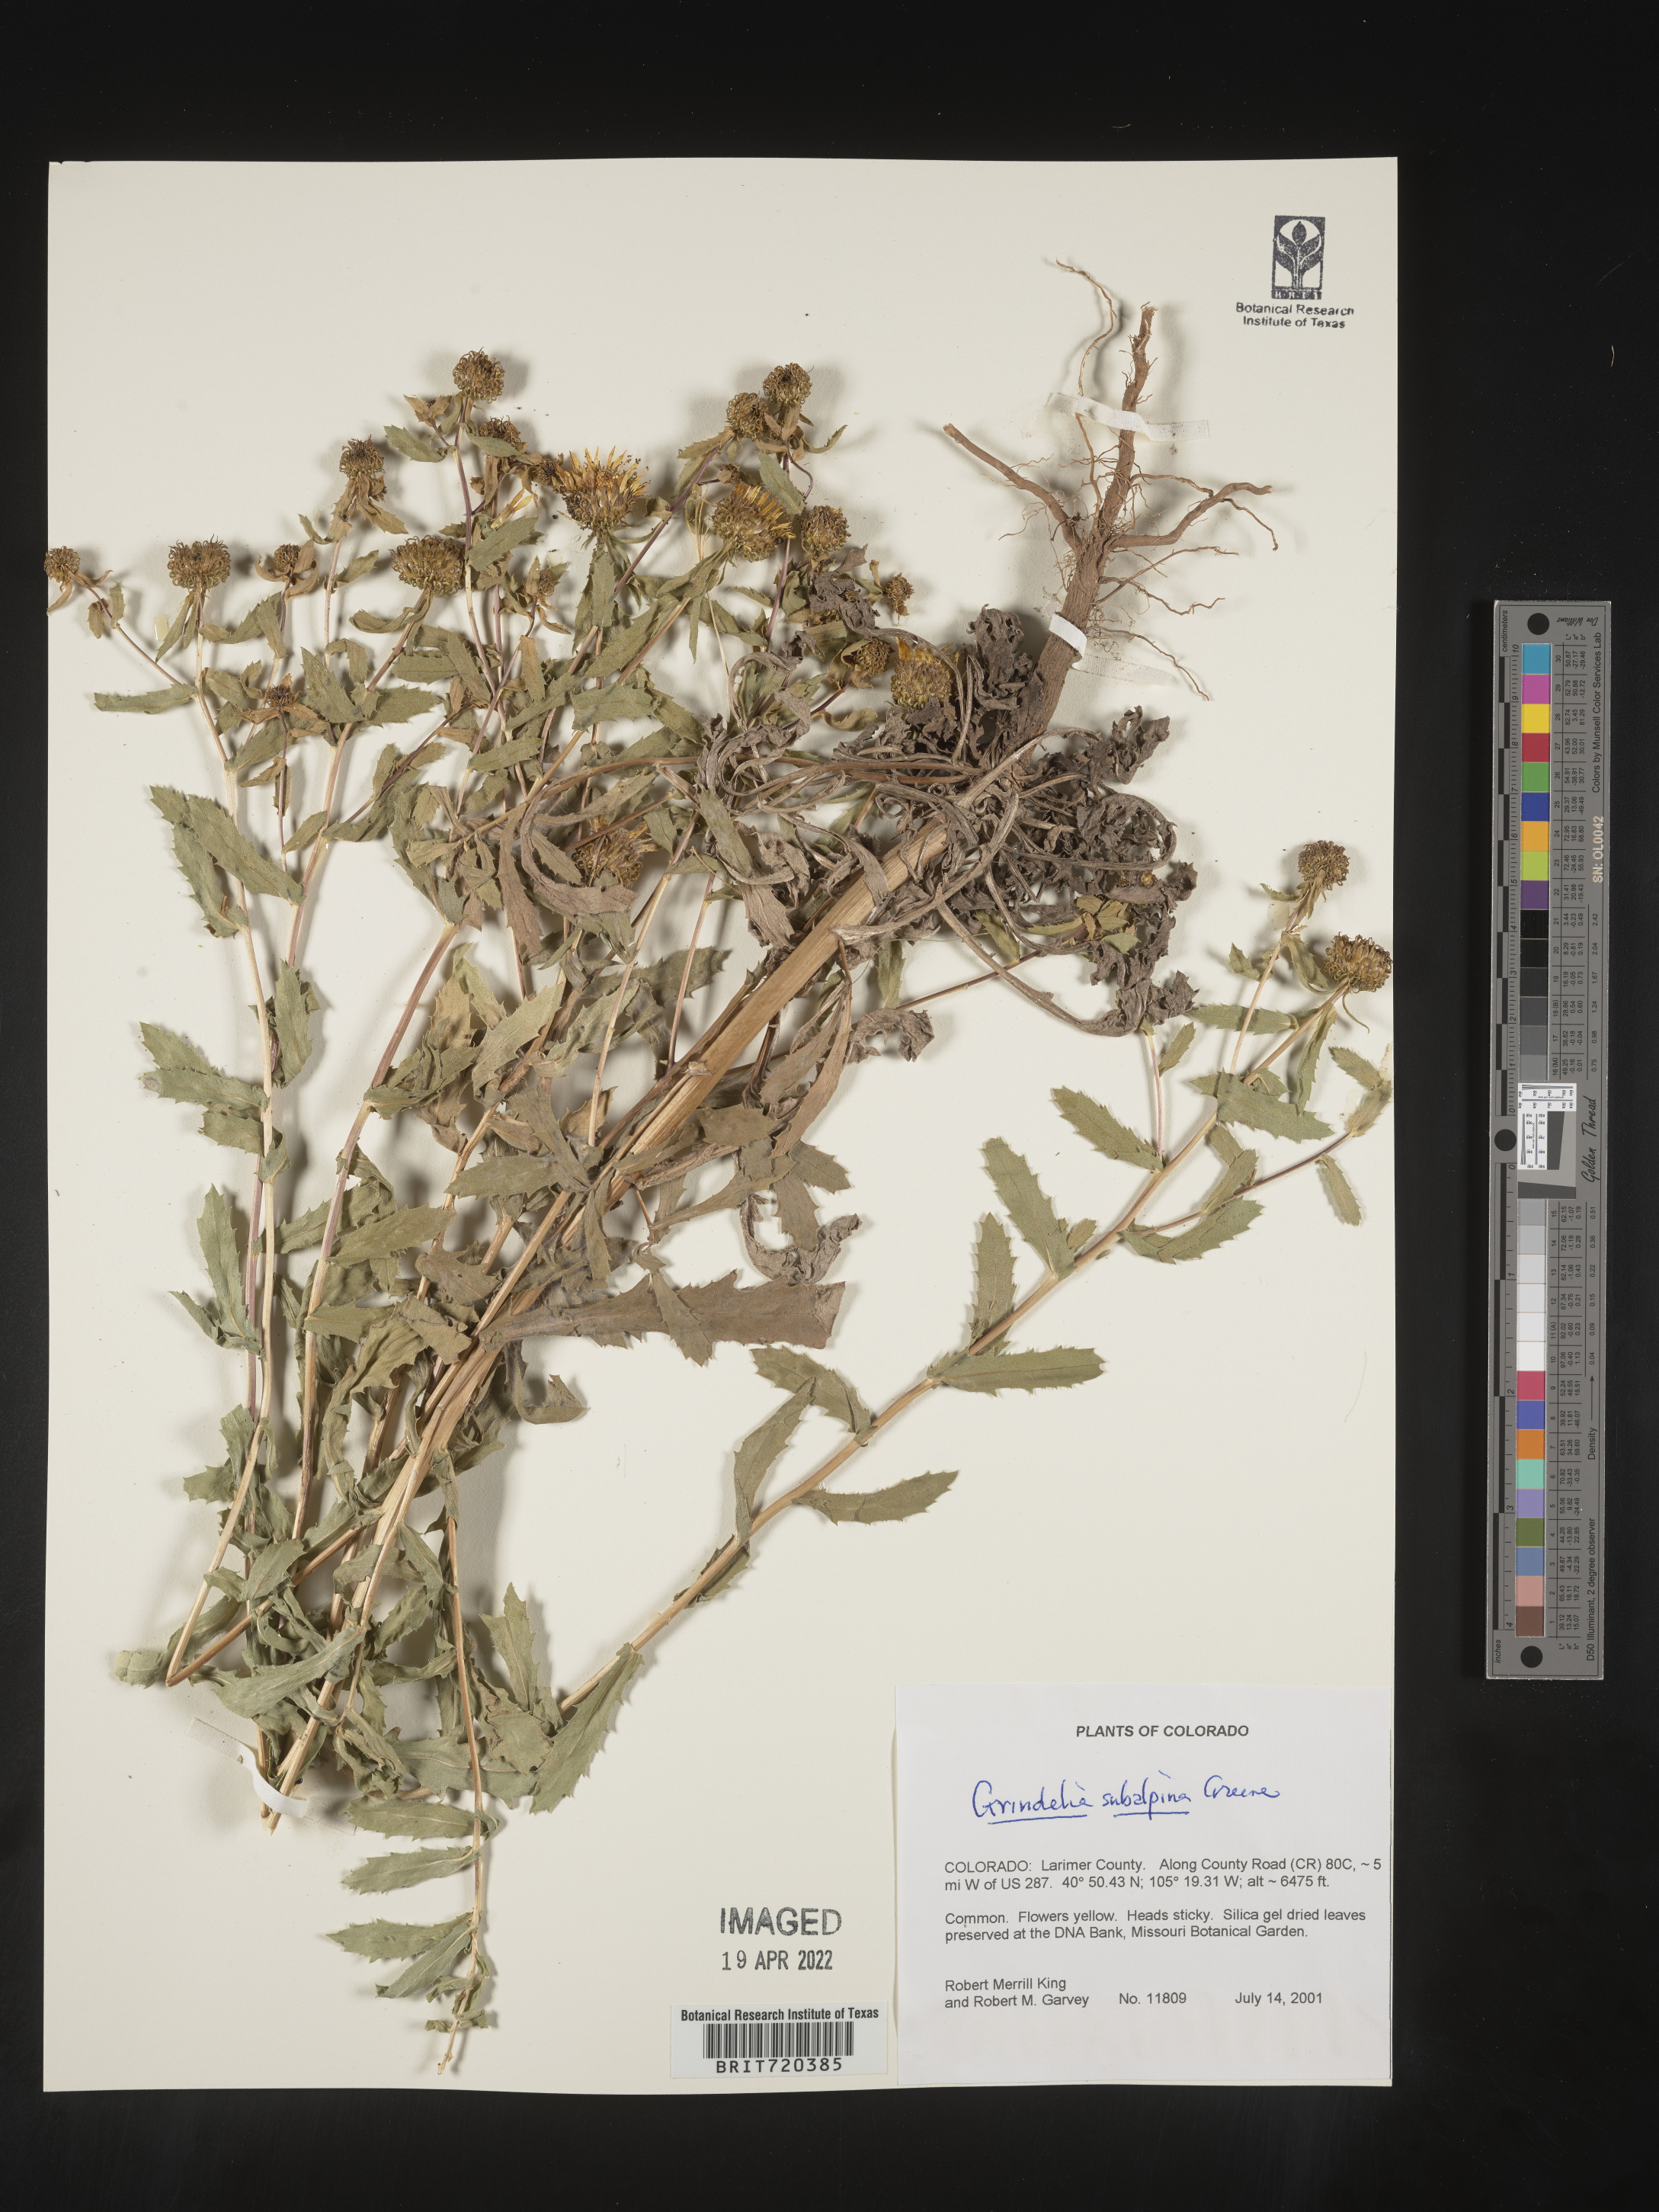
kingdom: Plantae
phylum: Tracheophyta
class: Magnoliopsida
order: Asterales
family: Asteraceae
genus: Grindelia
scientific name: Grindelia subalpina
